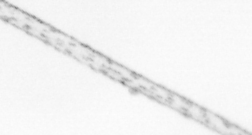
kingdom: Chromista
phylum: Ochrophyta
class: Bacillariophyceae
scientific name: Bacillariophyceae
